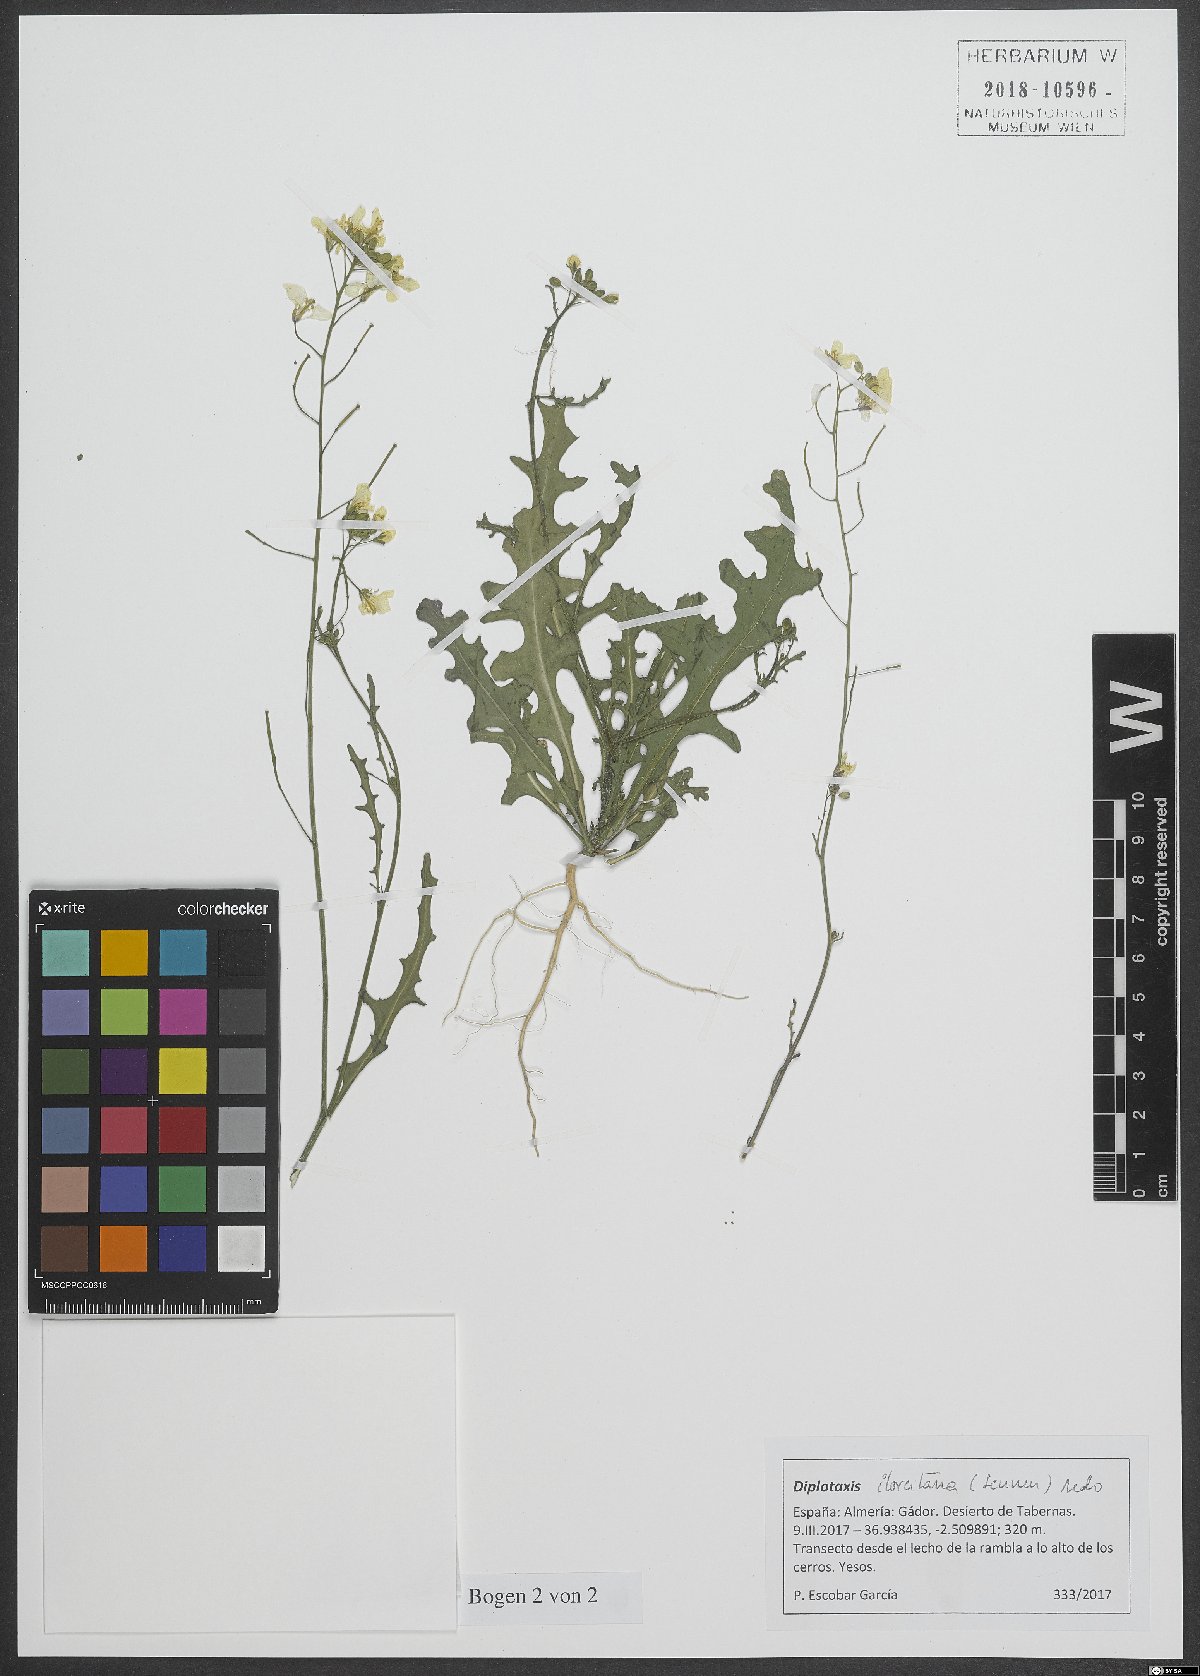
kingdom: Plantae
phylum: Tracheophyta
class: Magnoliopsida
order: Brassicales
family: Brassicaceae
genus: Diplotaxis
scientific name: Diplotaxis ilorcitana
